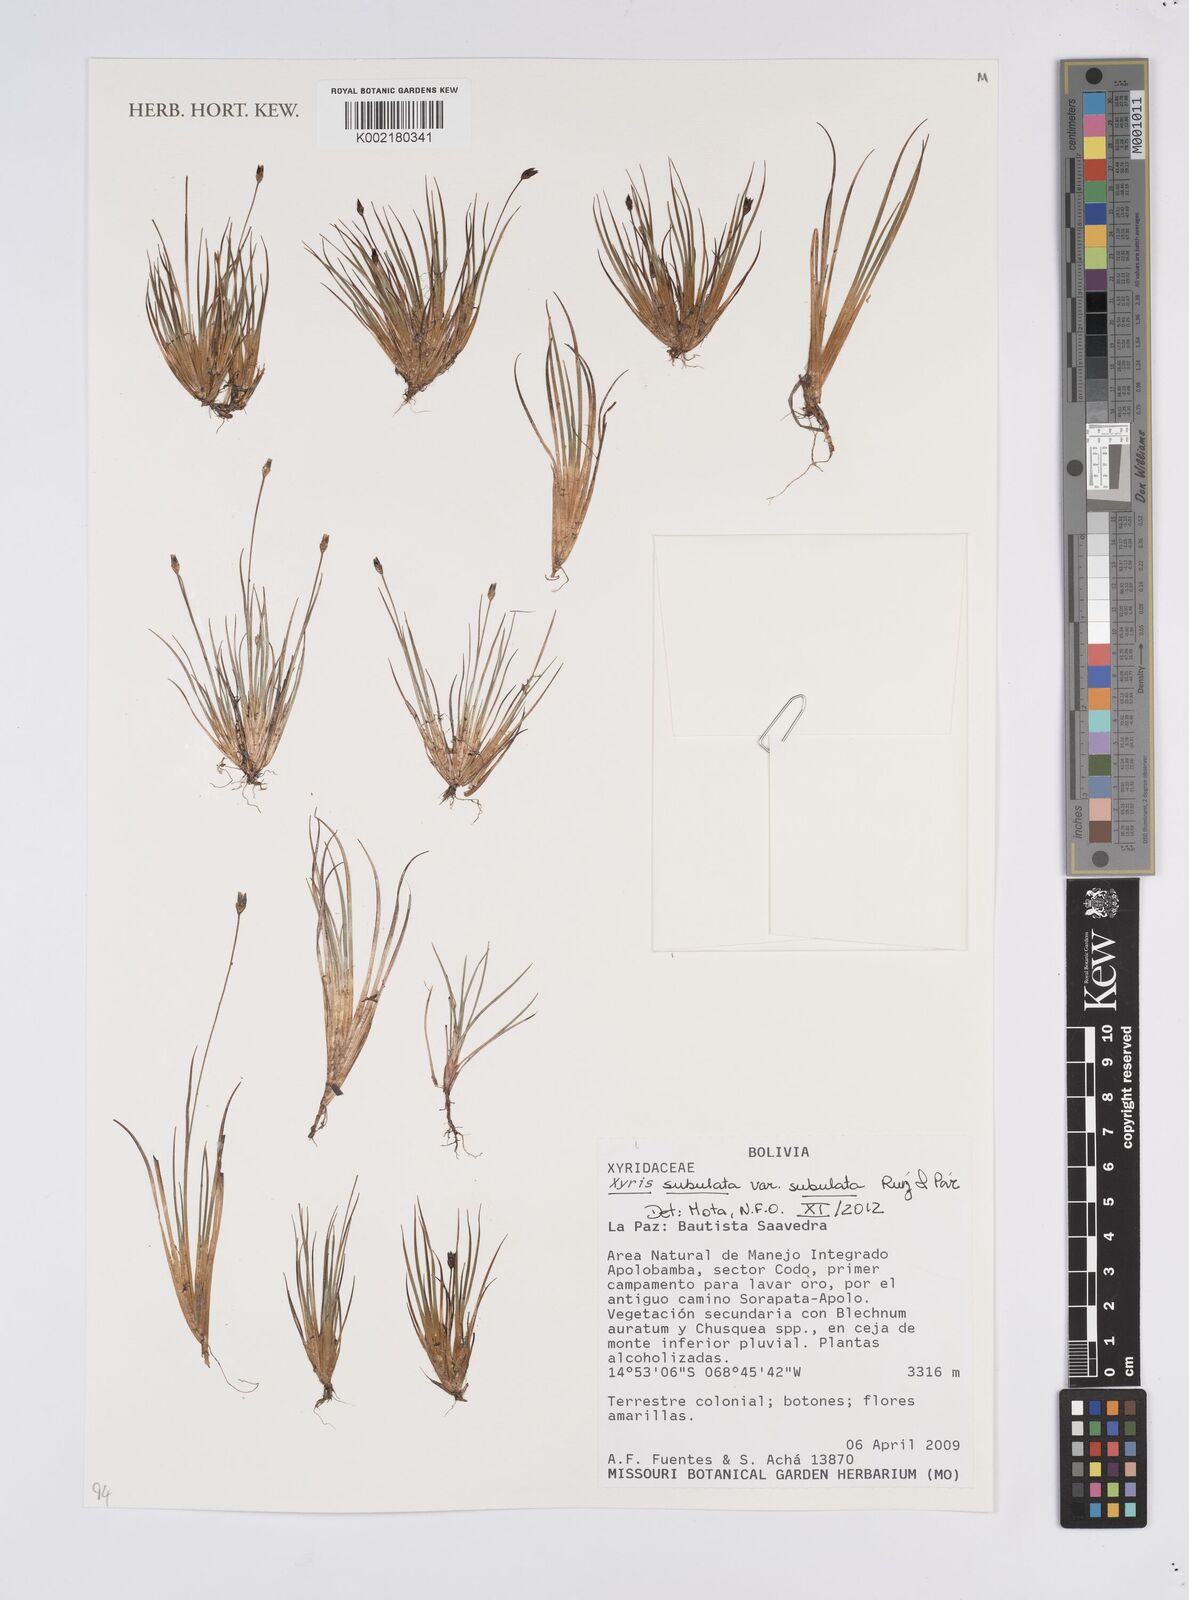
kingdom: Plantae
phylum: Tracheophyta
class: Liliopsida
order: Poales
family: Xyridaceae
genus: Xyris
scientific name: Xyris subulata
